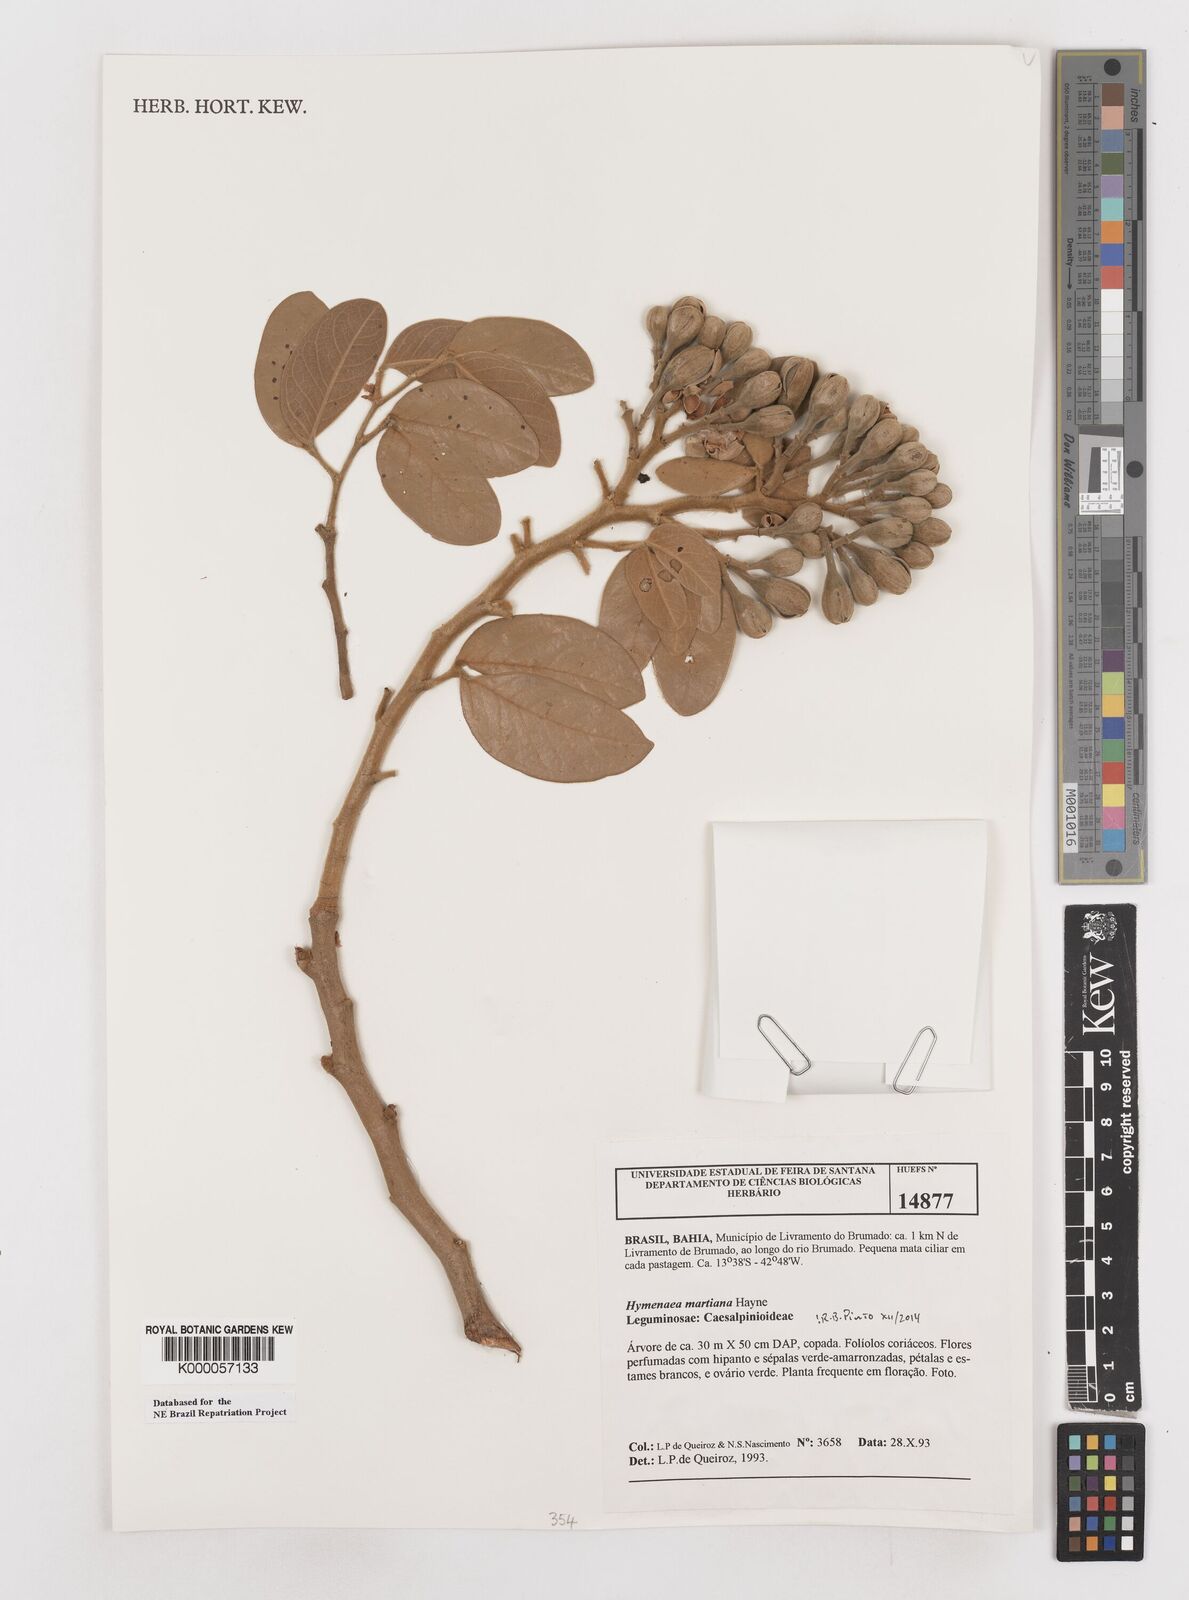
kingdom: Plantae
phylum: Tracheophyta
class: Magnoliopsida
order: Fabales
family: Fabaceae
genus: Hymenaea
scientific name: Hymenaea martiana
